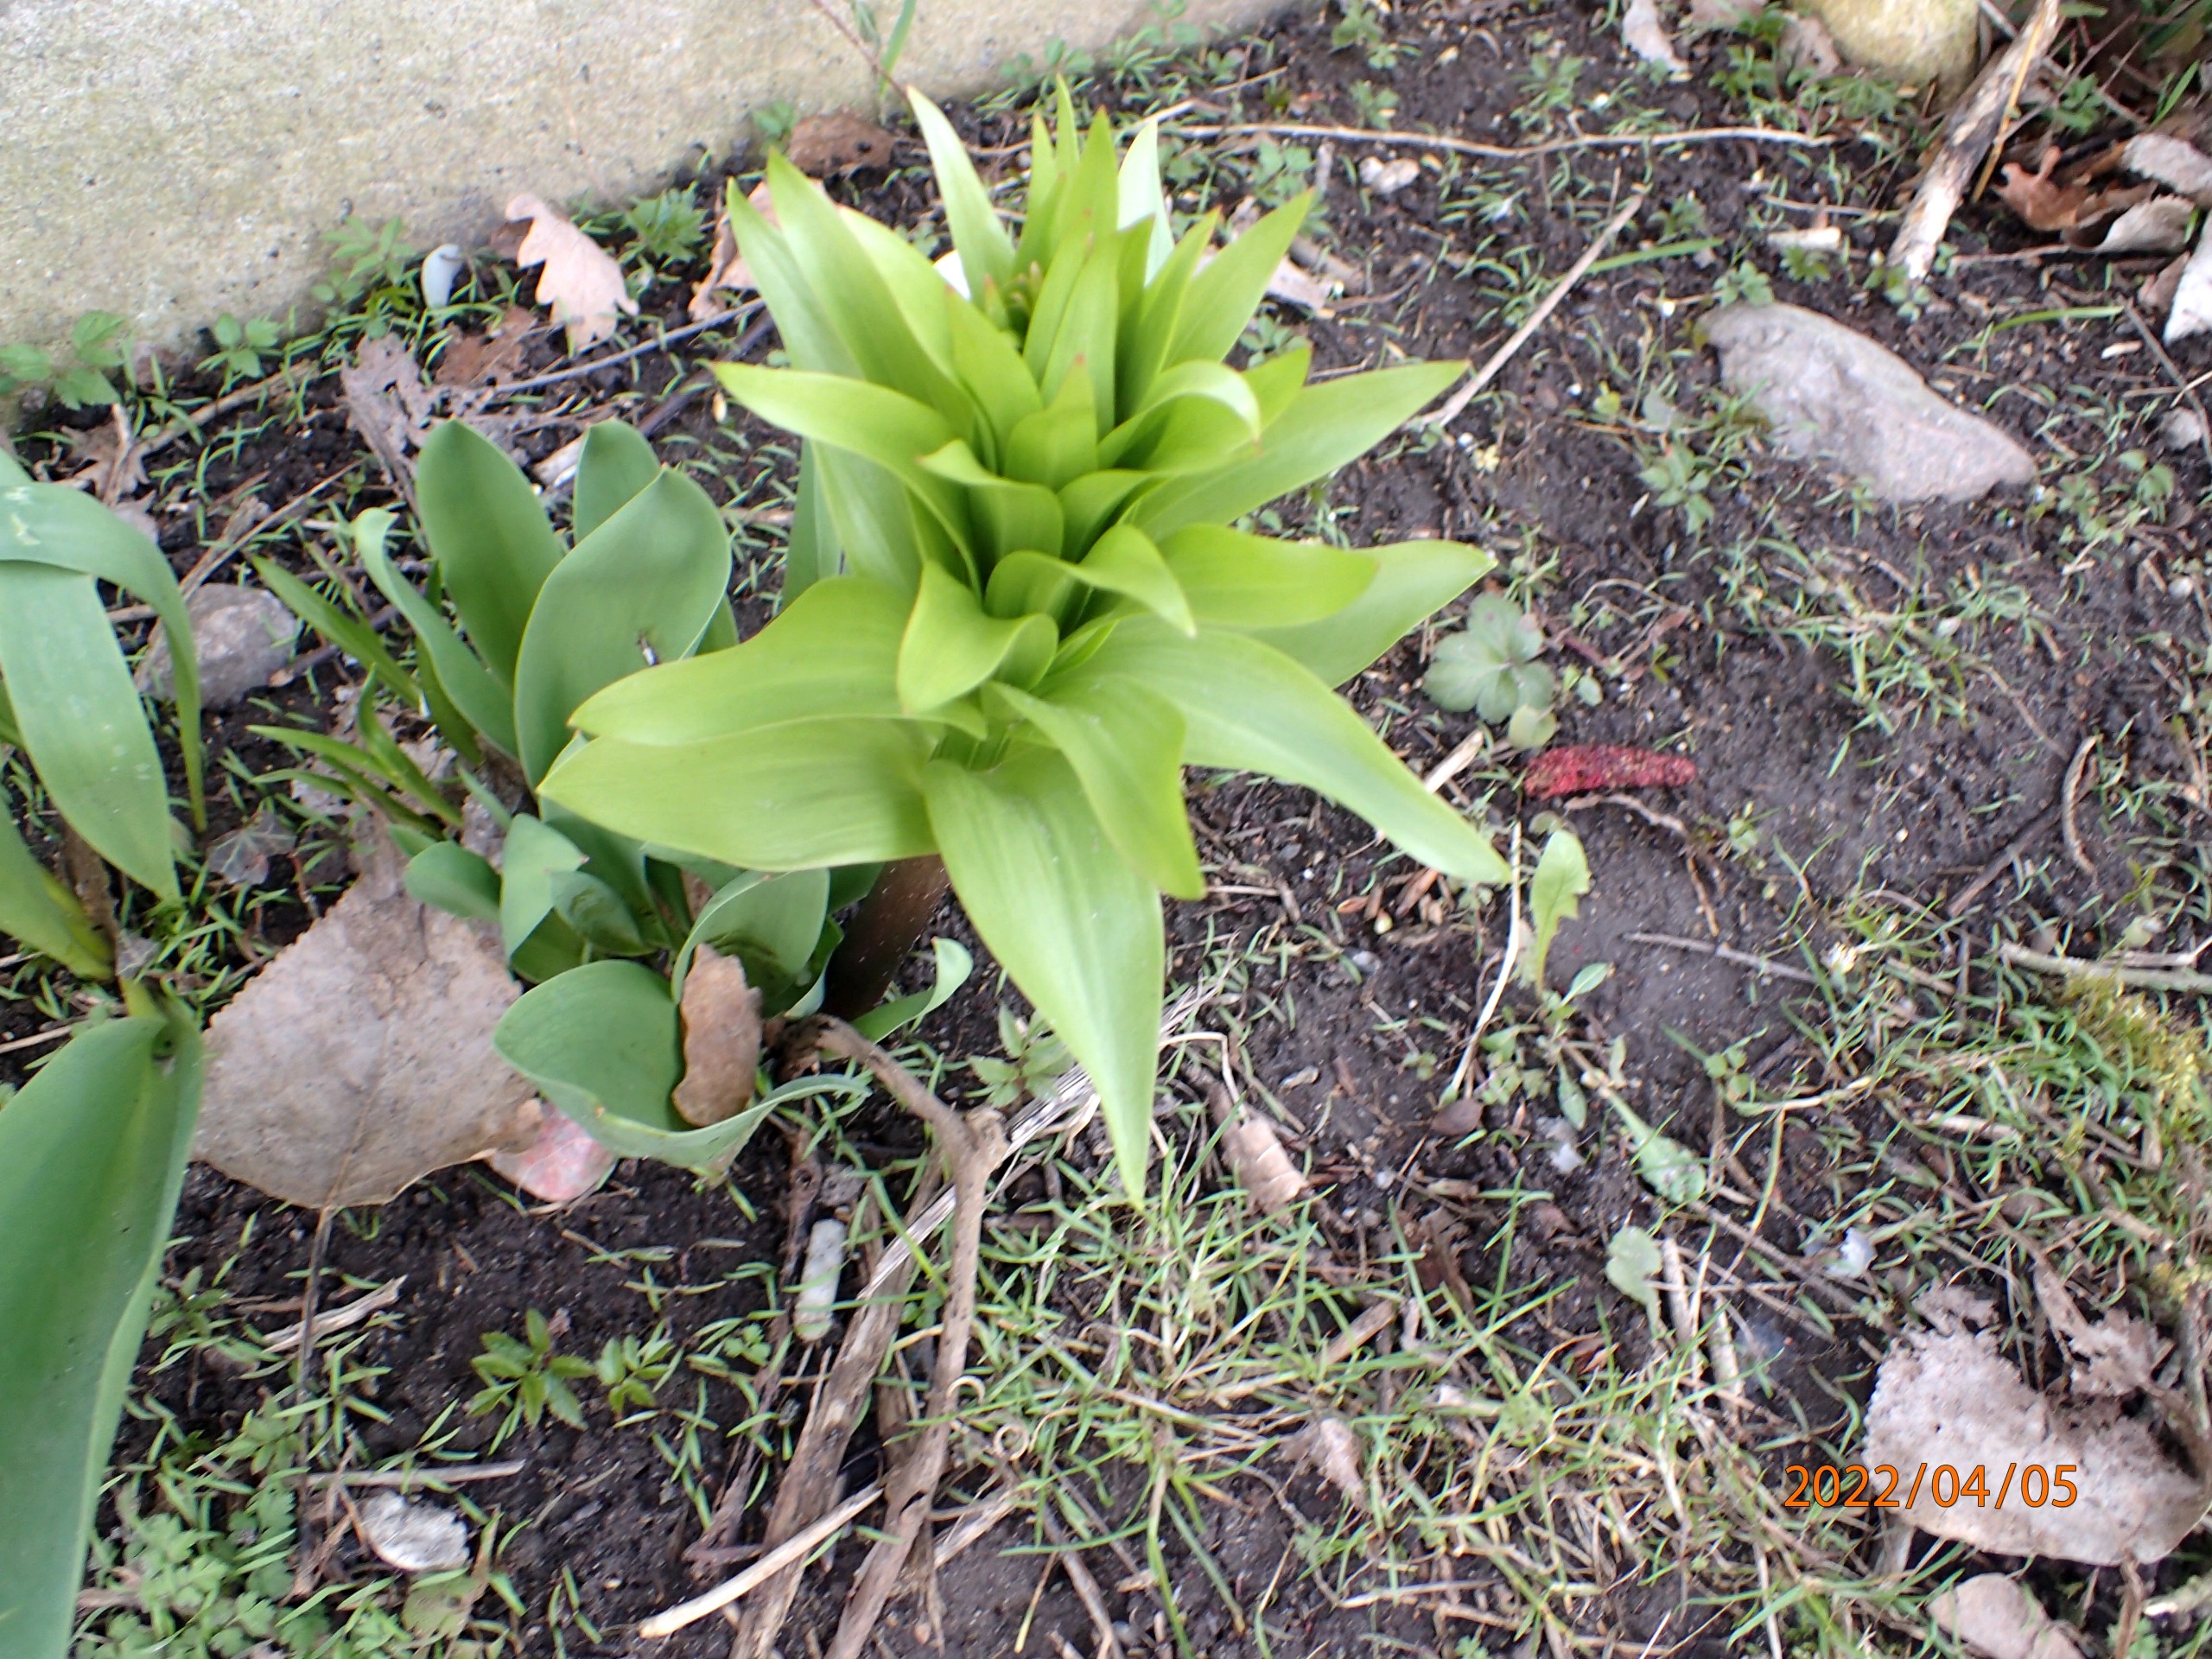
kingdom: Plantae
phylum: Tracheophyta
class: Liliopsida
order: Liliales
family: Liliaceae
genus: Fritillaria
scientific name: Fritillaria imperialis
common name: Kejserkrone
